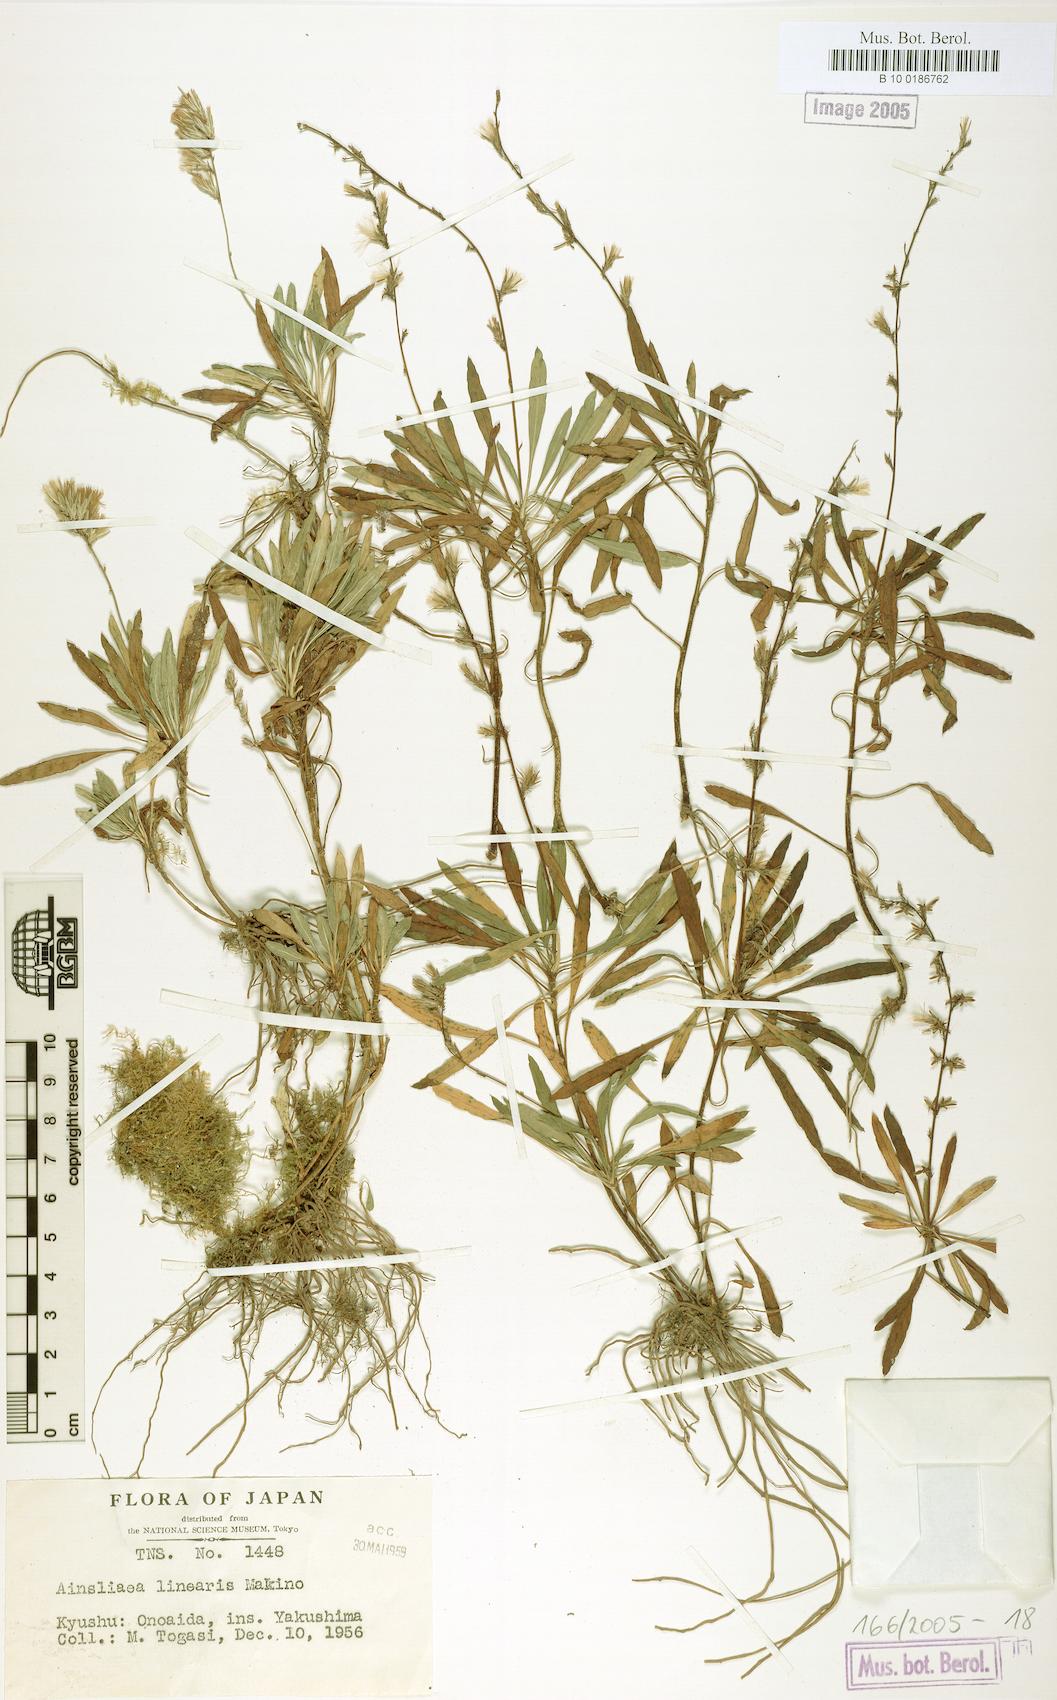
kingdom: Plantae
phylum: Tracheophyta
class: Magnoliopsida
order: Asterales
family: Asteraceae
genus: Ainsliaea
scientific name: Ainsliaea faurieana
